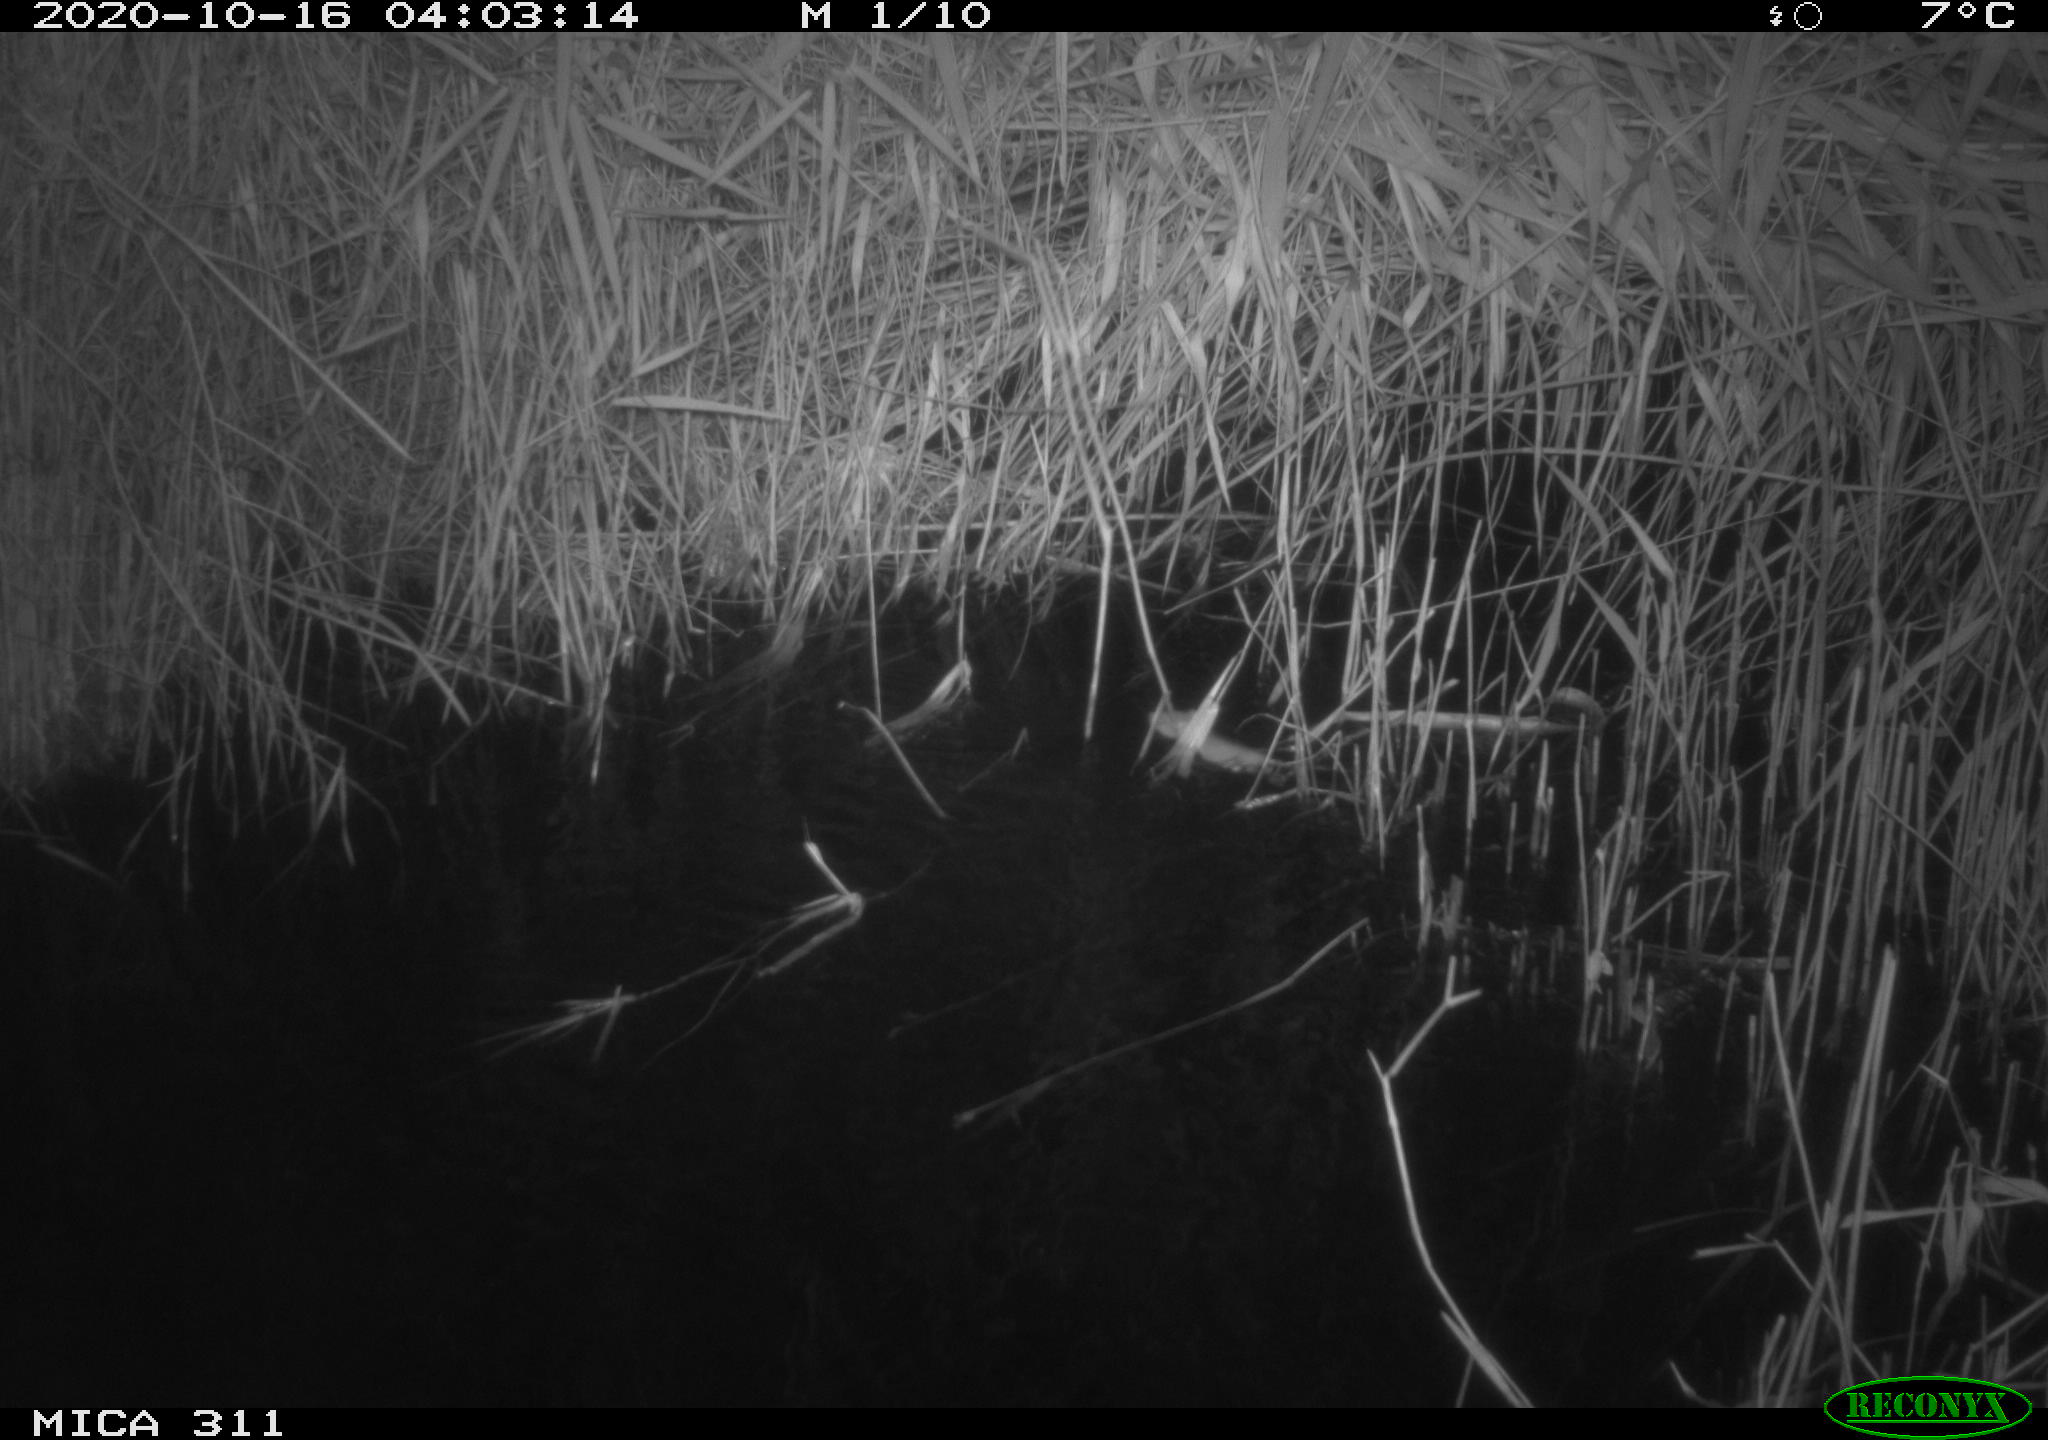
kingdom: Animalia
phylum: Chordata
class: Mammalia
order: Rodentia
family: Muridae
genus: Apodemus
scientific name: Apodemus sylvaticus
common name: Wood mouse
